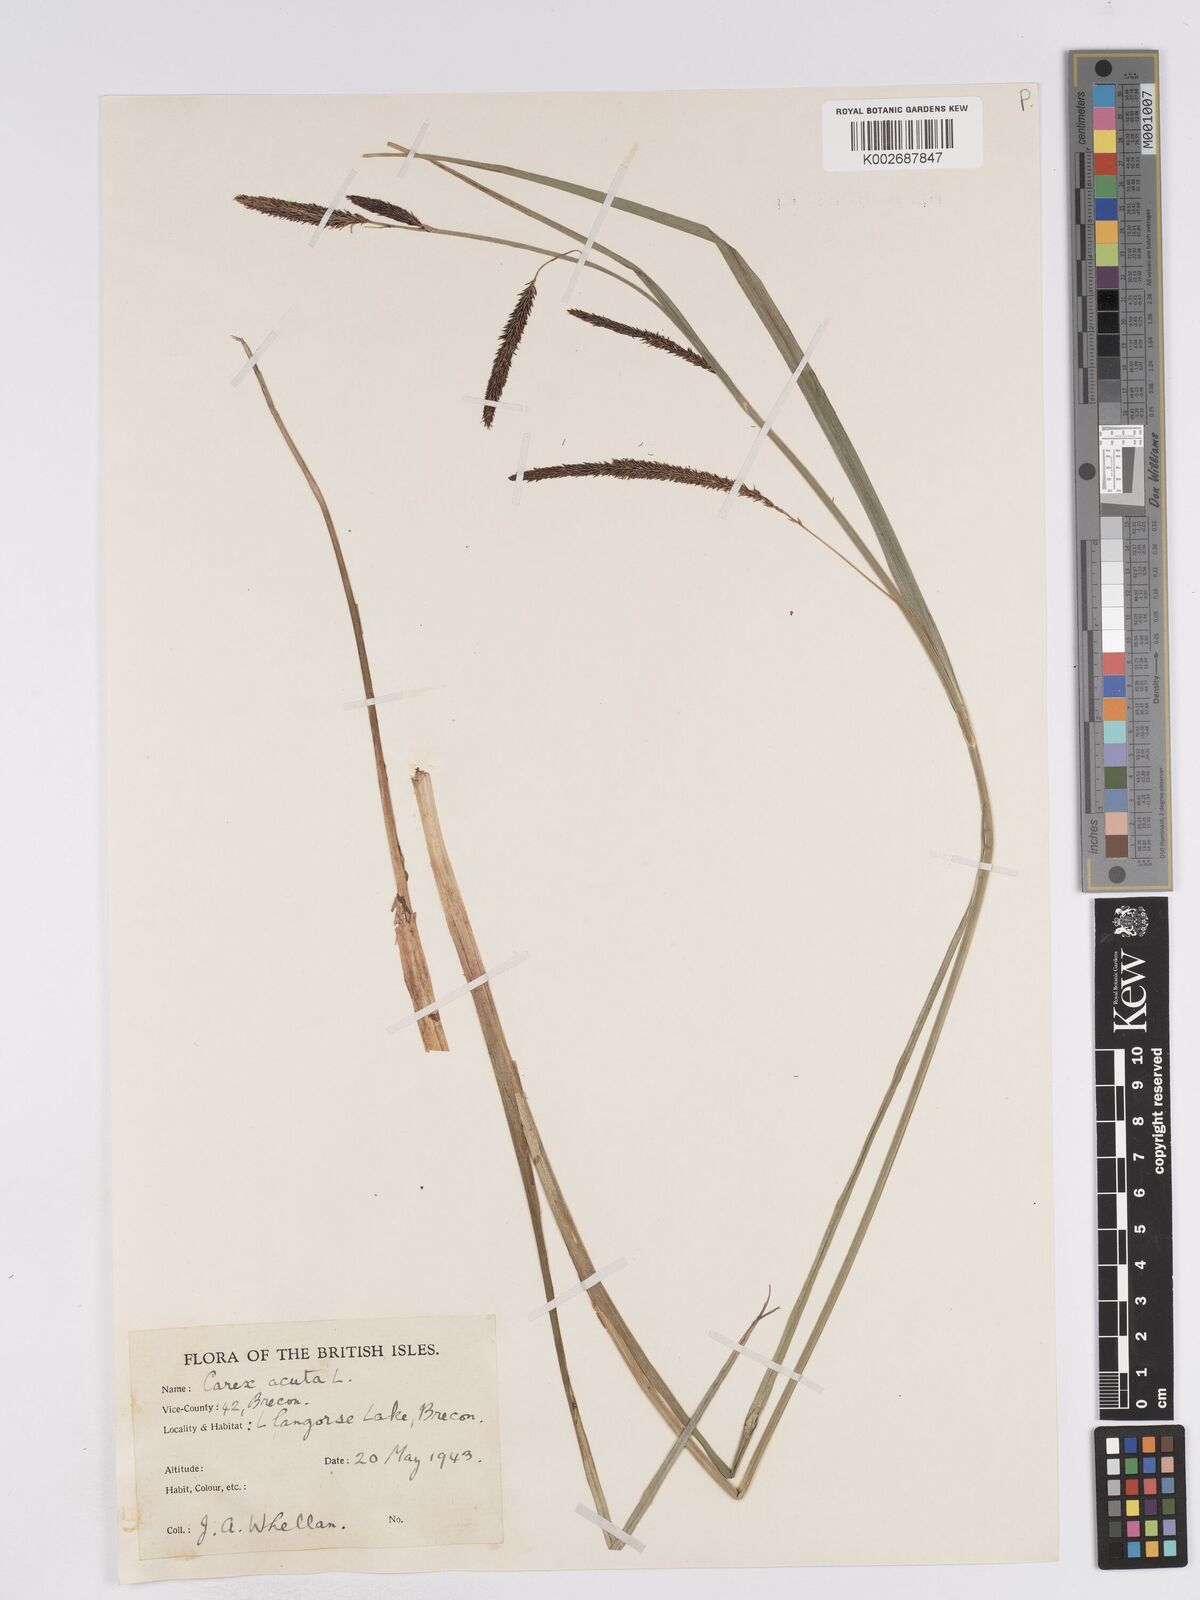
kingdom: Plantae
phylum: Tracheophyta
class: Liliopsida
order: Poales
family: Cyperaceae
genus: Carex
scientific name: Carex acuta
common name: Slender tufted-sedge
